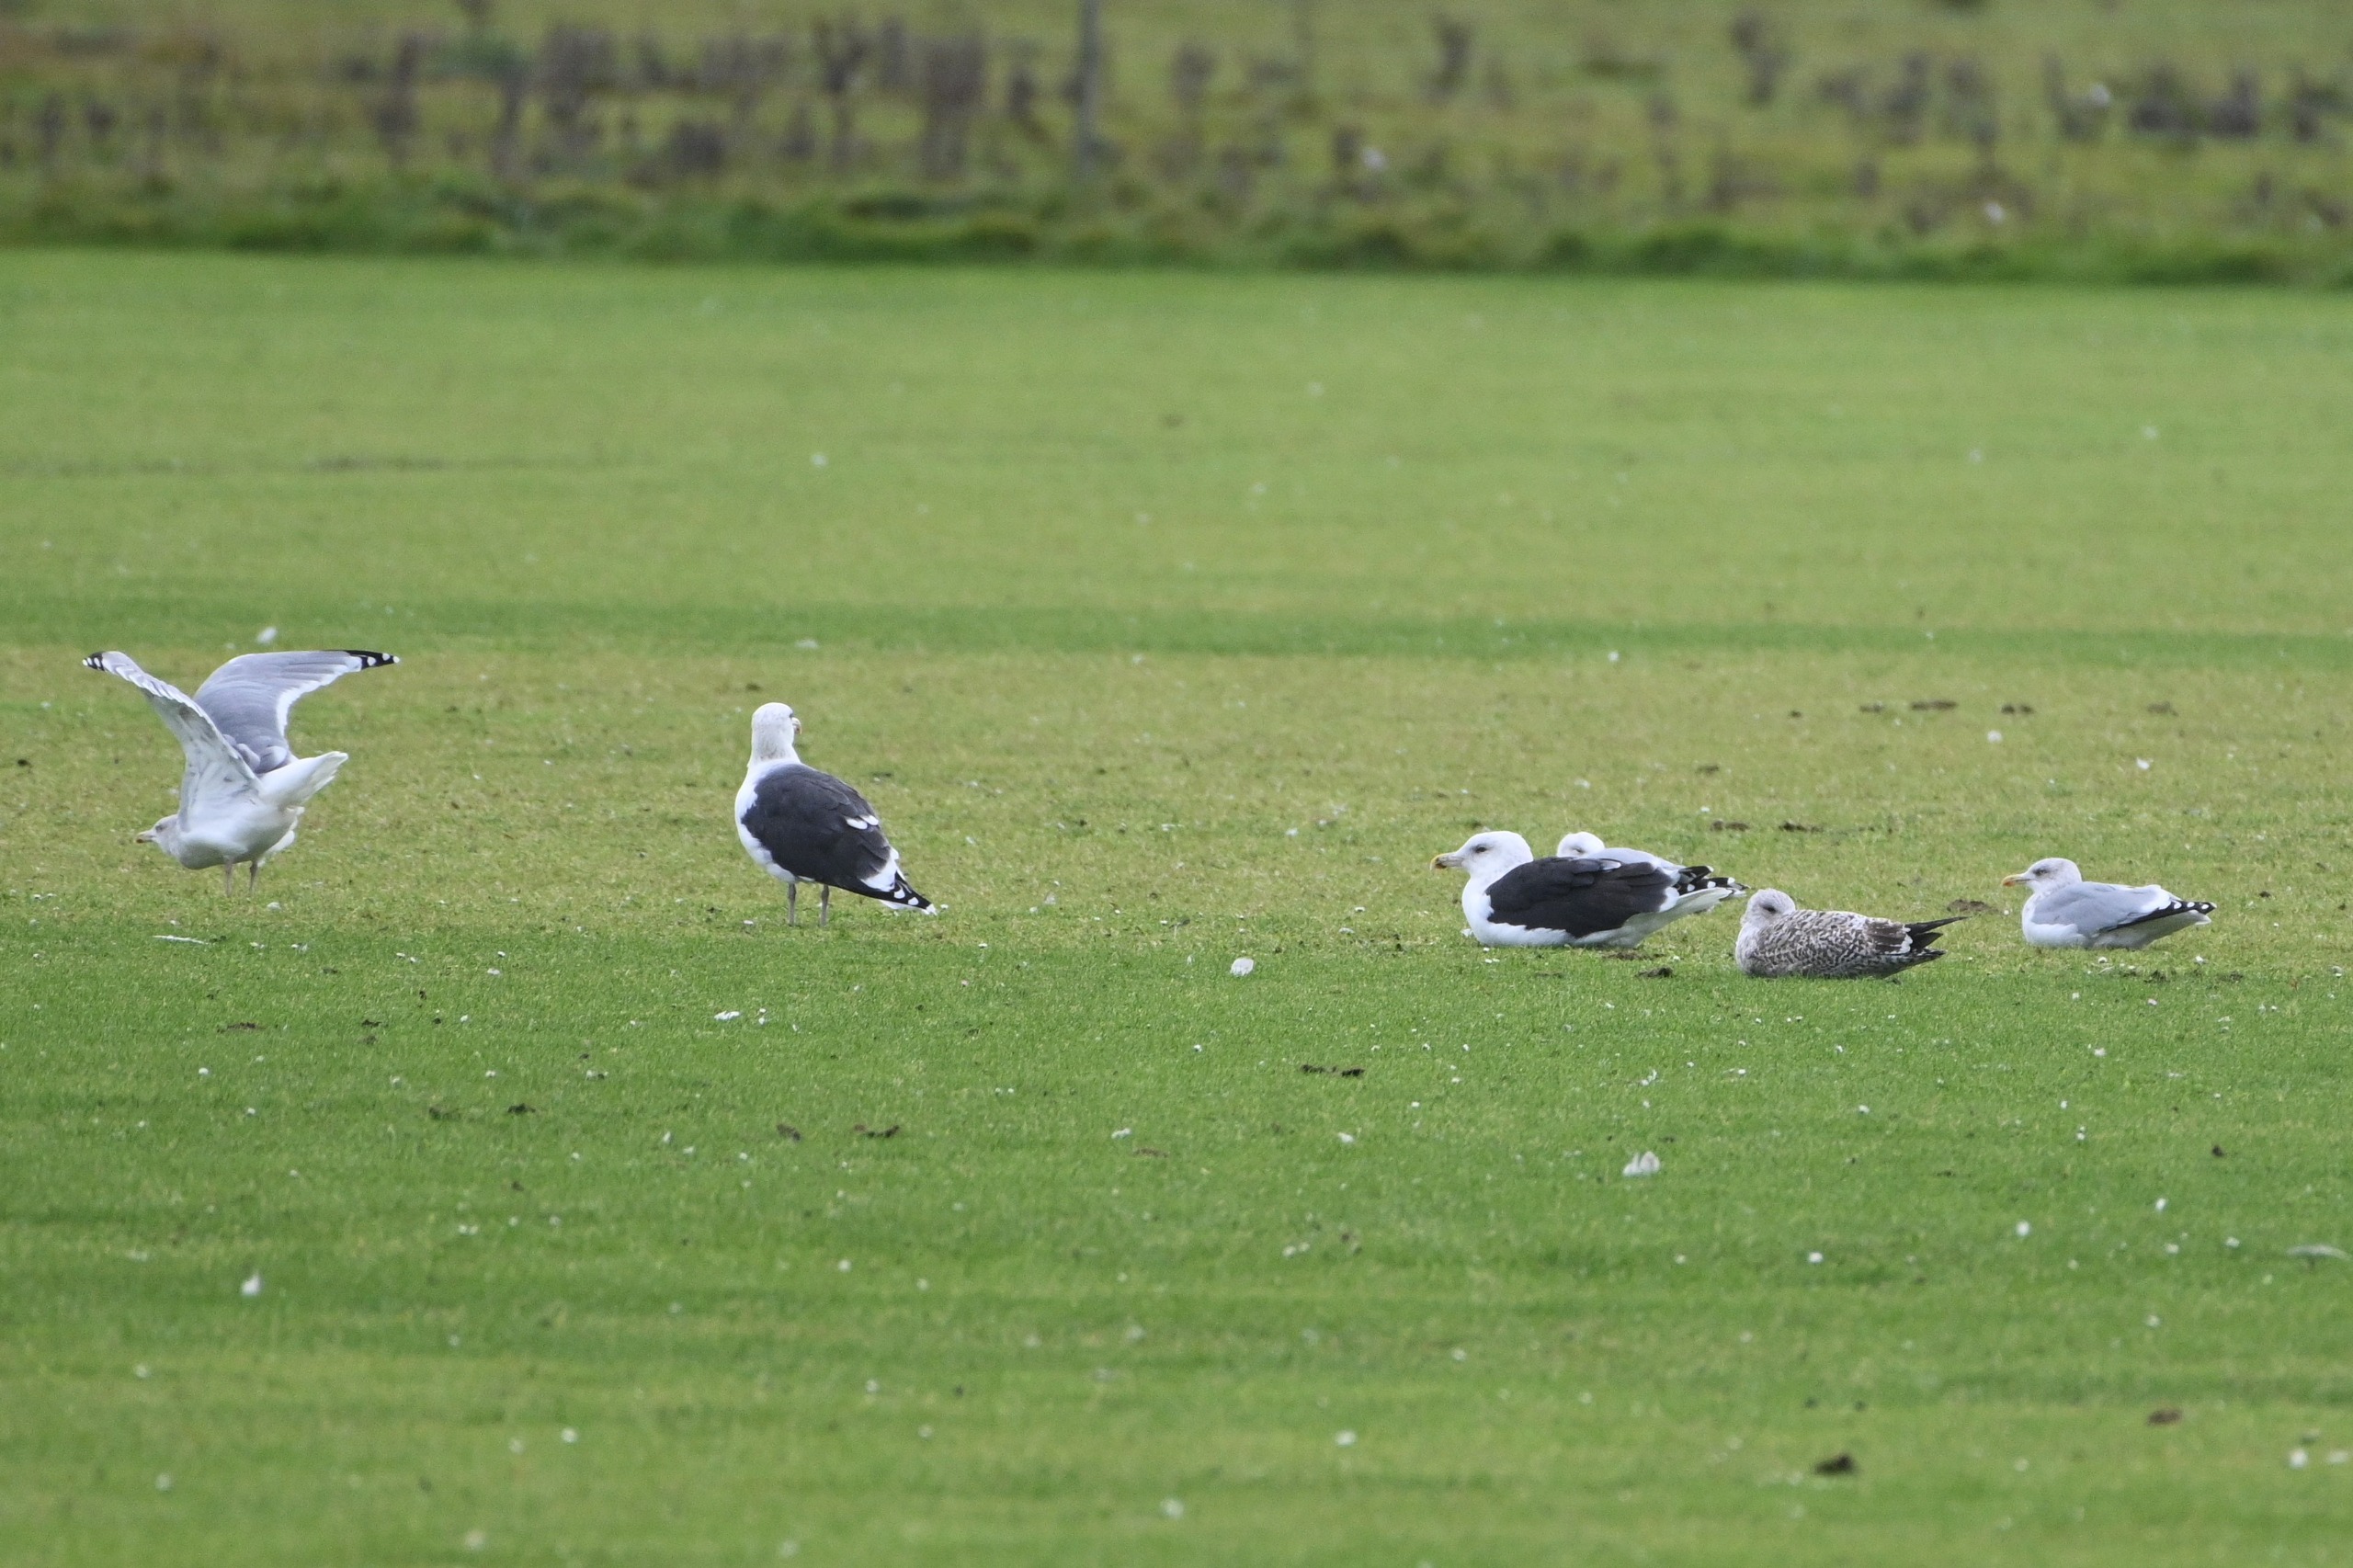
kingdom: Animalia
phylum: Chordata
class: Aves
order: Charadriiformes
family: Laridae
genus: Larus
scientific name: Larus marinus
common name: Svartbag
